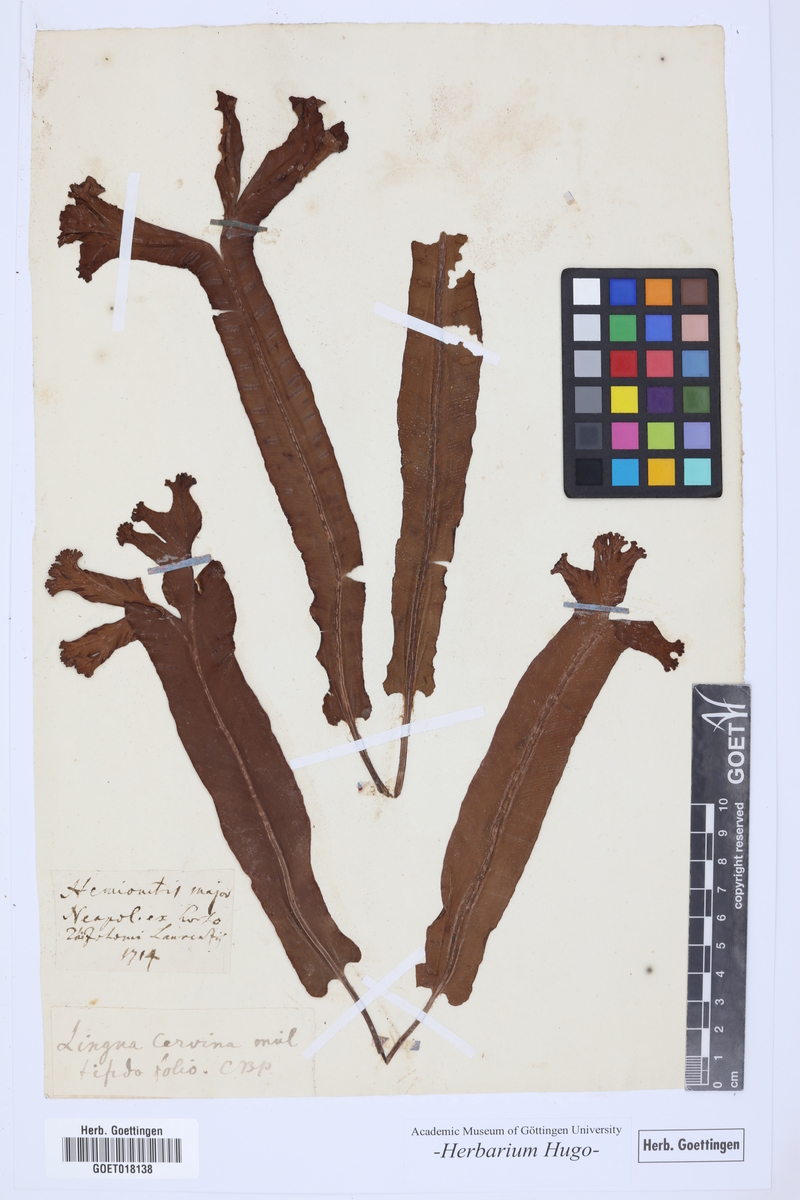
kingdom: Plantae
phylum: Tracheophyta
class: Polypodiopsida
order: Polypodiales
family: Aspleniaceae
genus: Asplenium
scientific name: Asplenium scolopendrium
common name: Hart's-tongue fern
